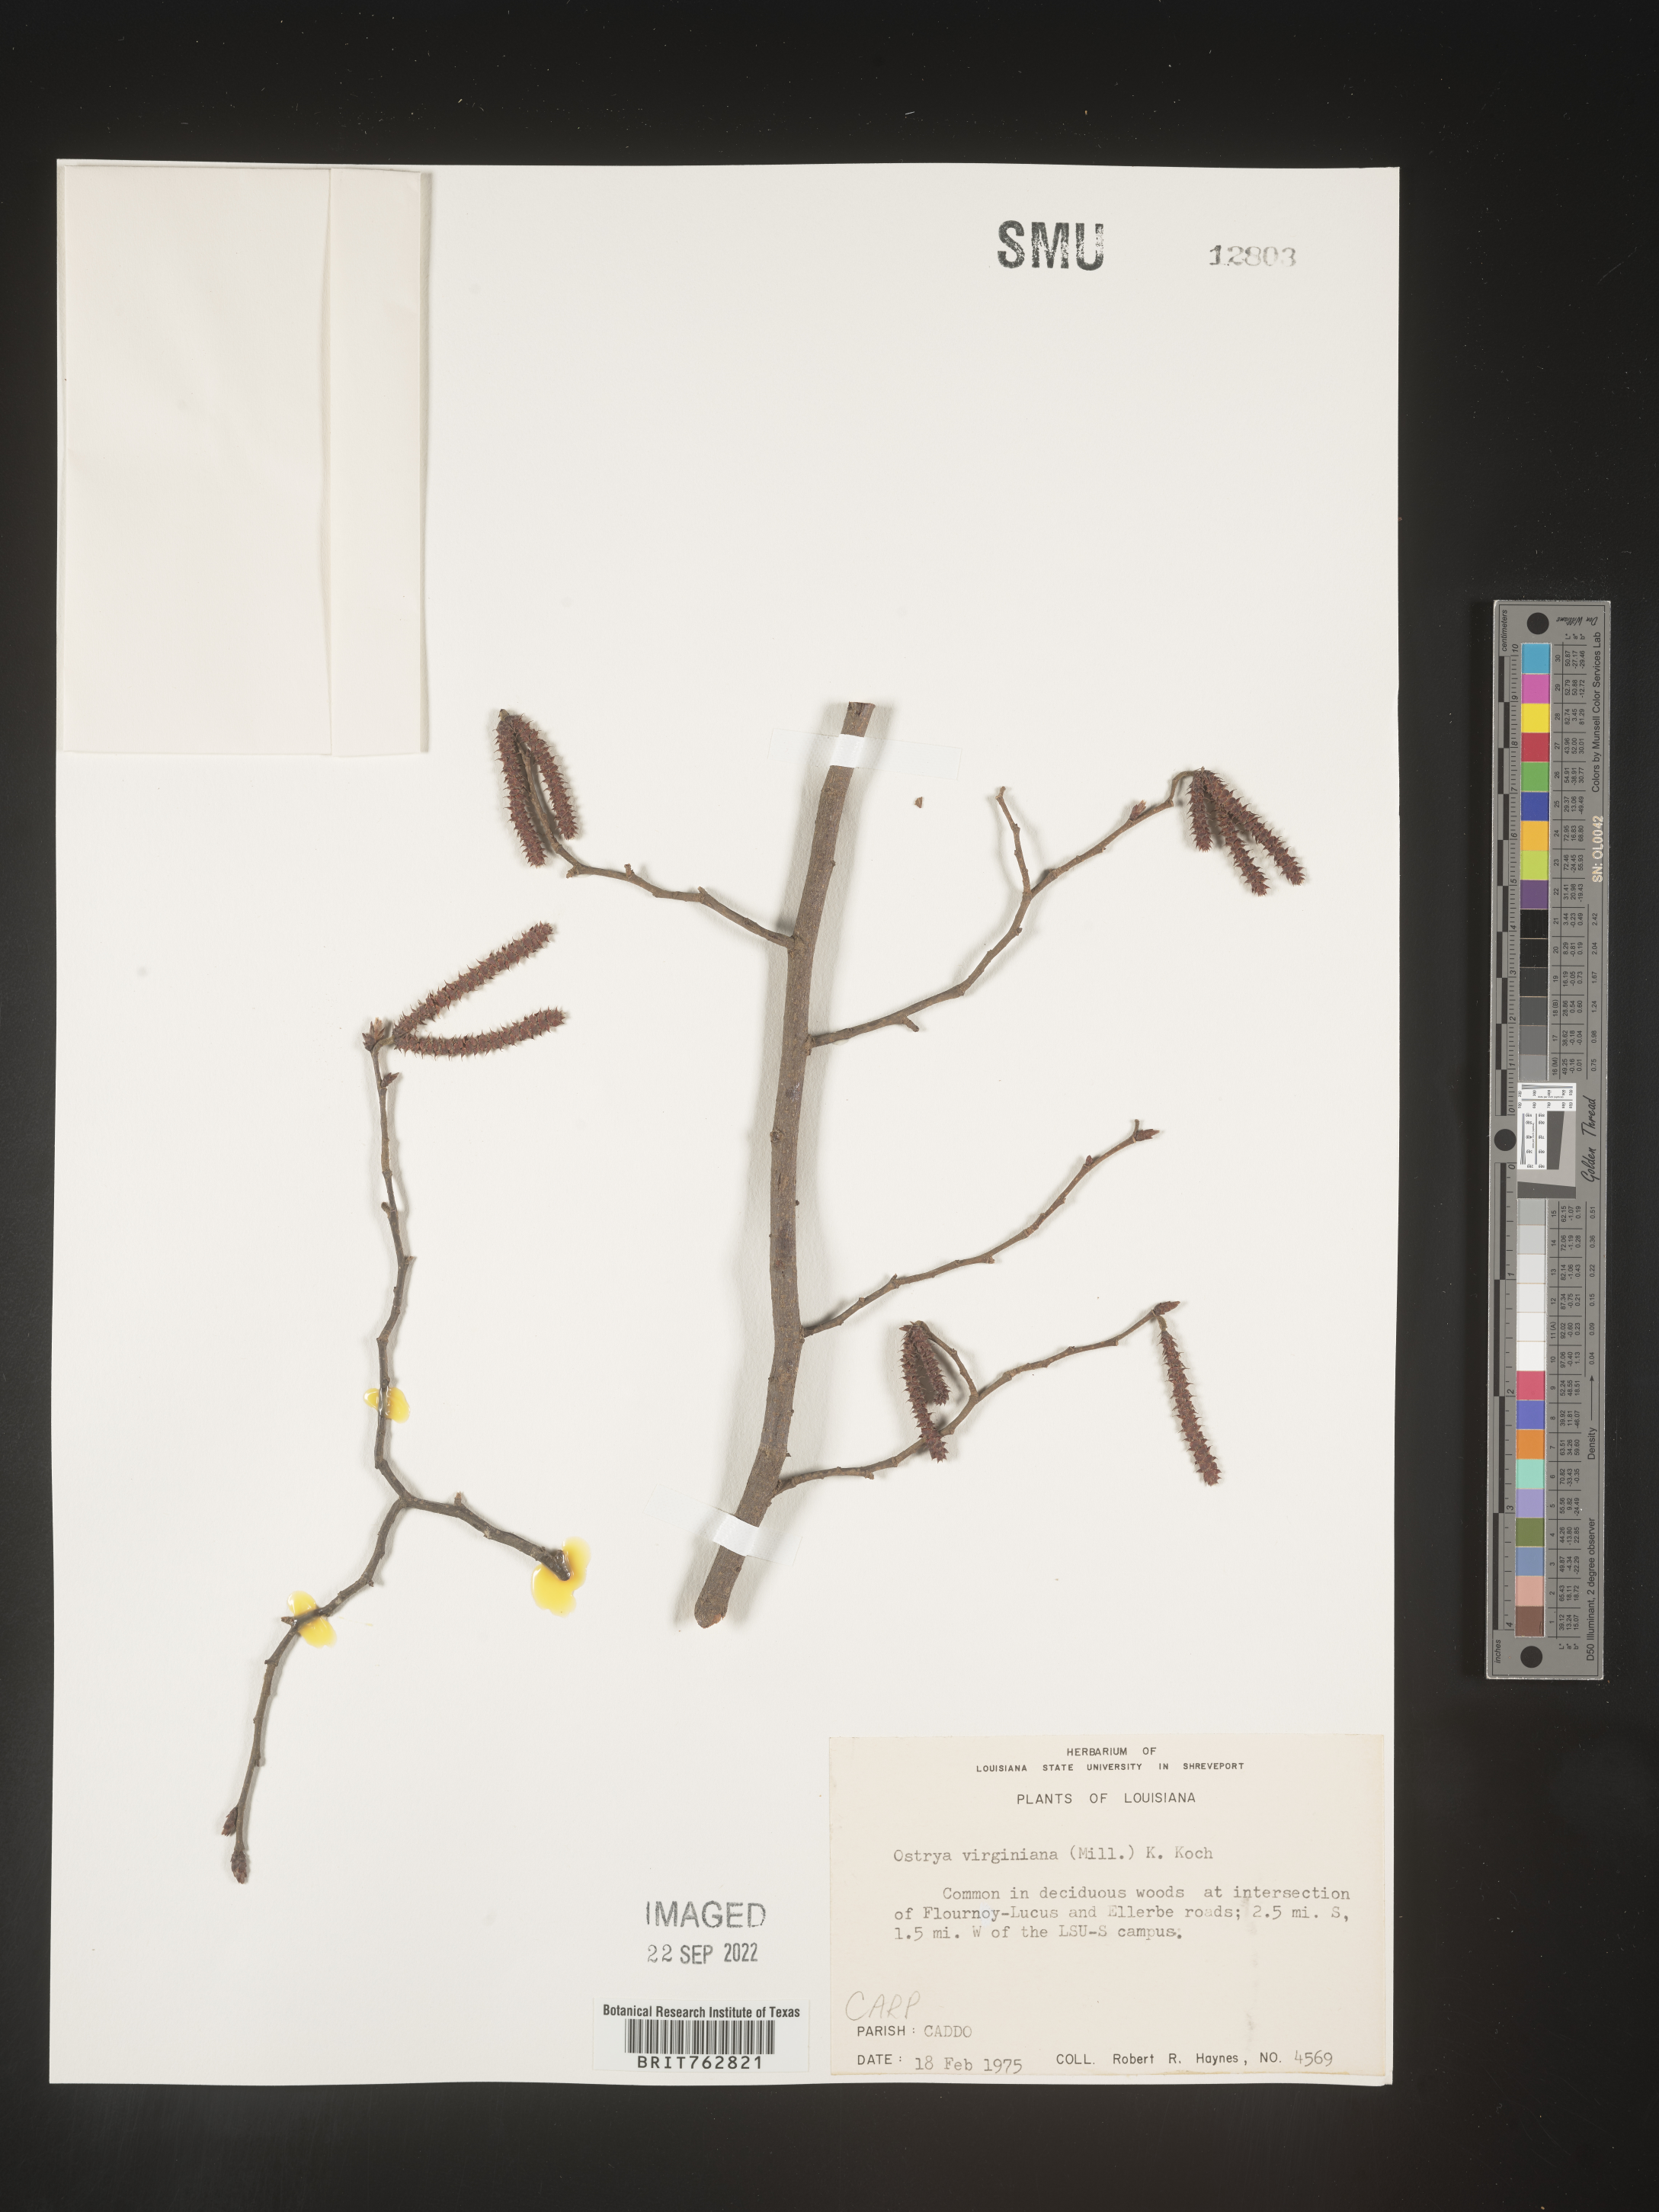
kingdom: Plantae
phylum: Tracheophyta
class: Magnoliopsida
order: Fagales
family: Betulaceae
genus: Ostrya
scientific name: Ostrya virginiana
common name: Ironwood
